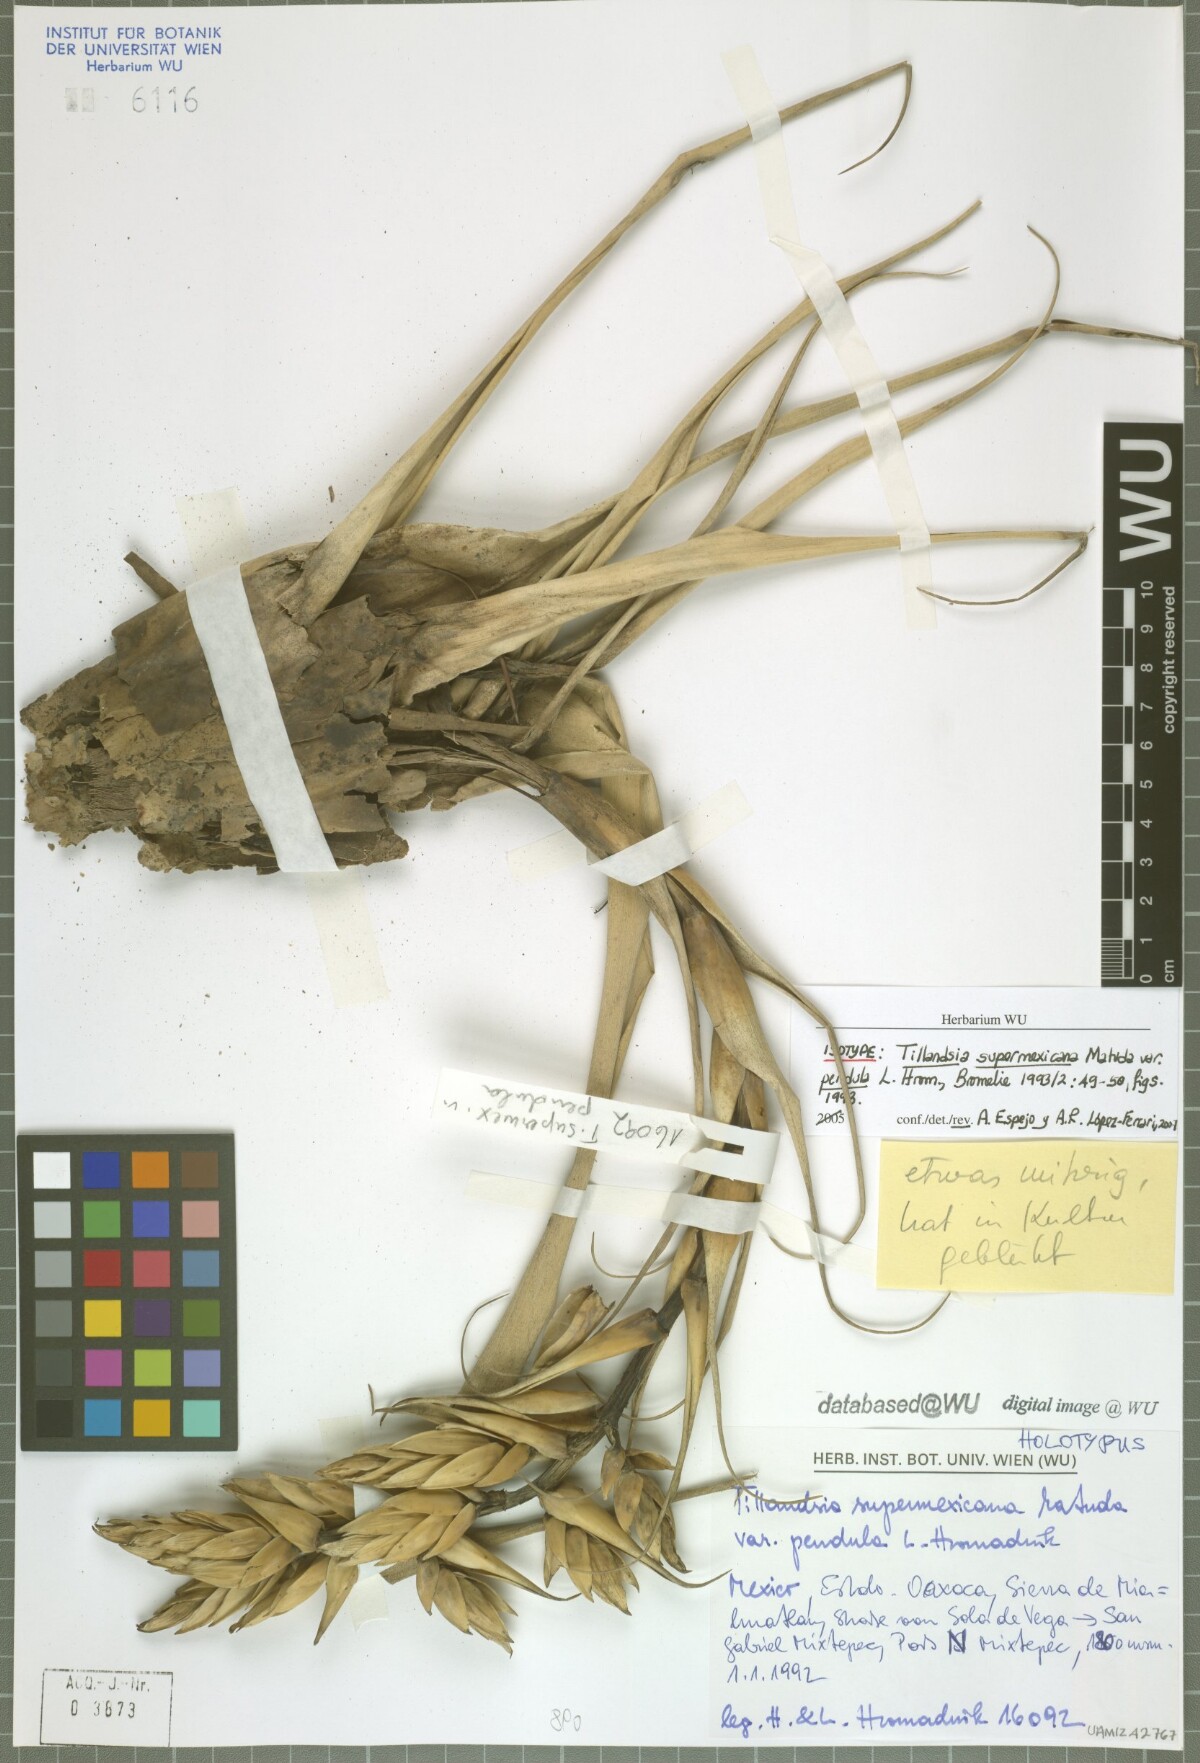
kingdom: Plantae
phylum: Tracheophyta
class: Liliopsida
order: Poales
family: Bromeliaceae
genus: Tillandsia
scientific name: Tillandsia supermexicana
